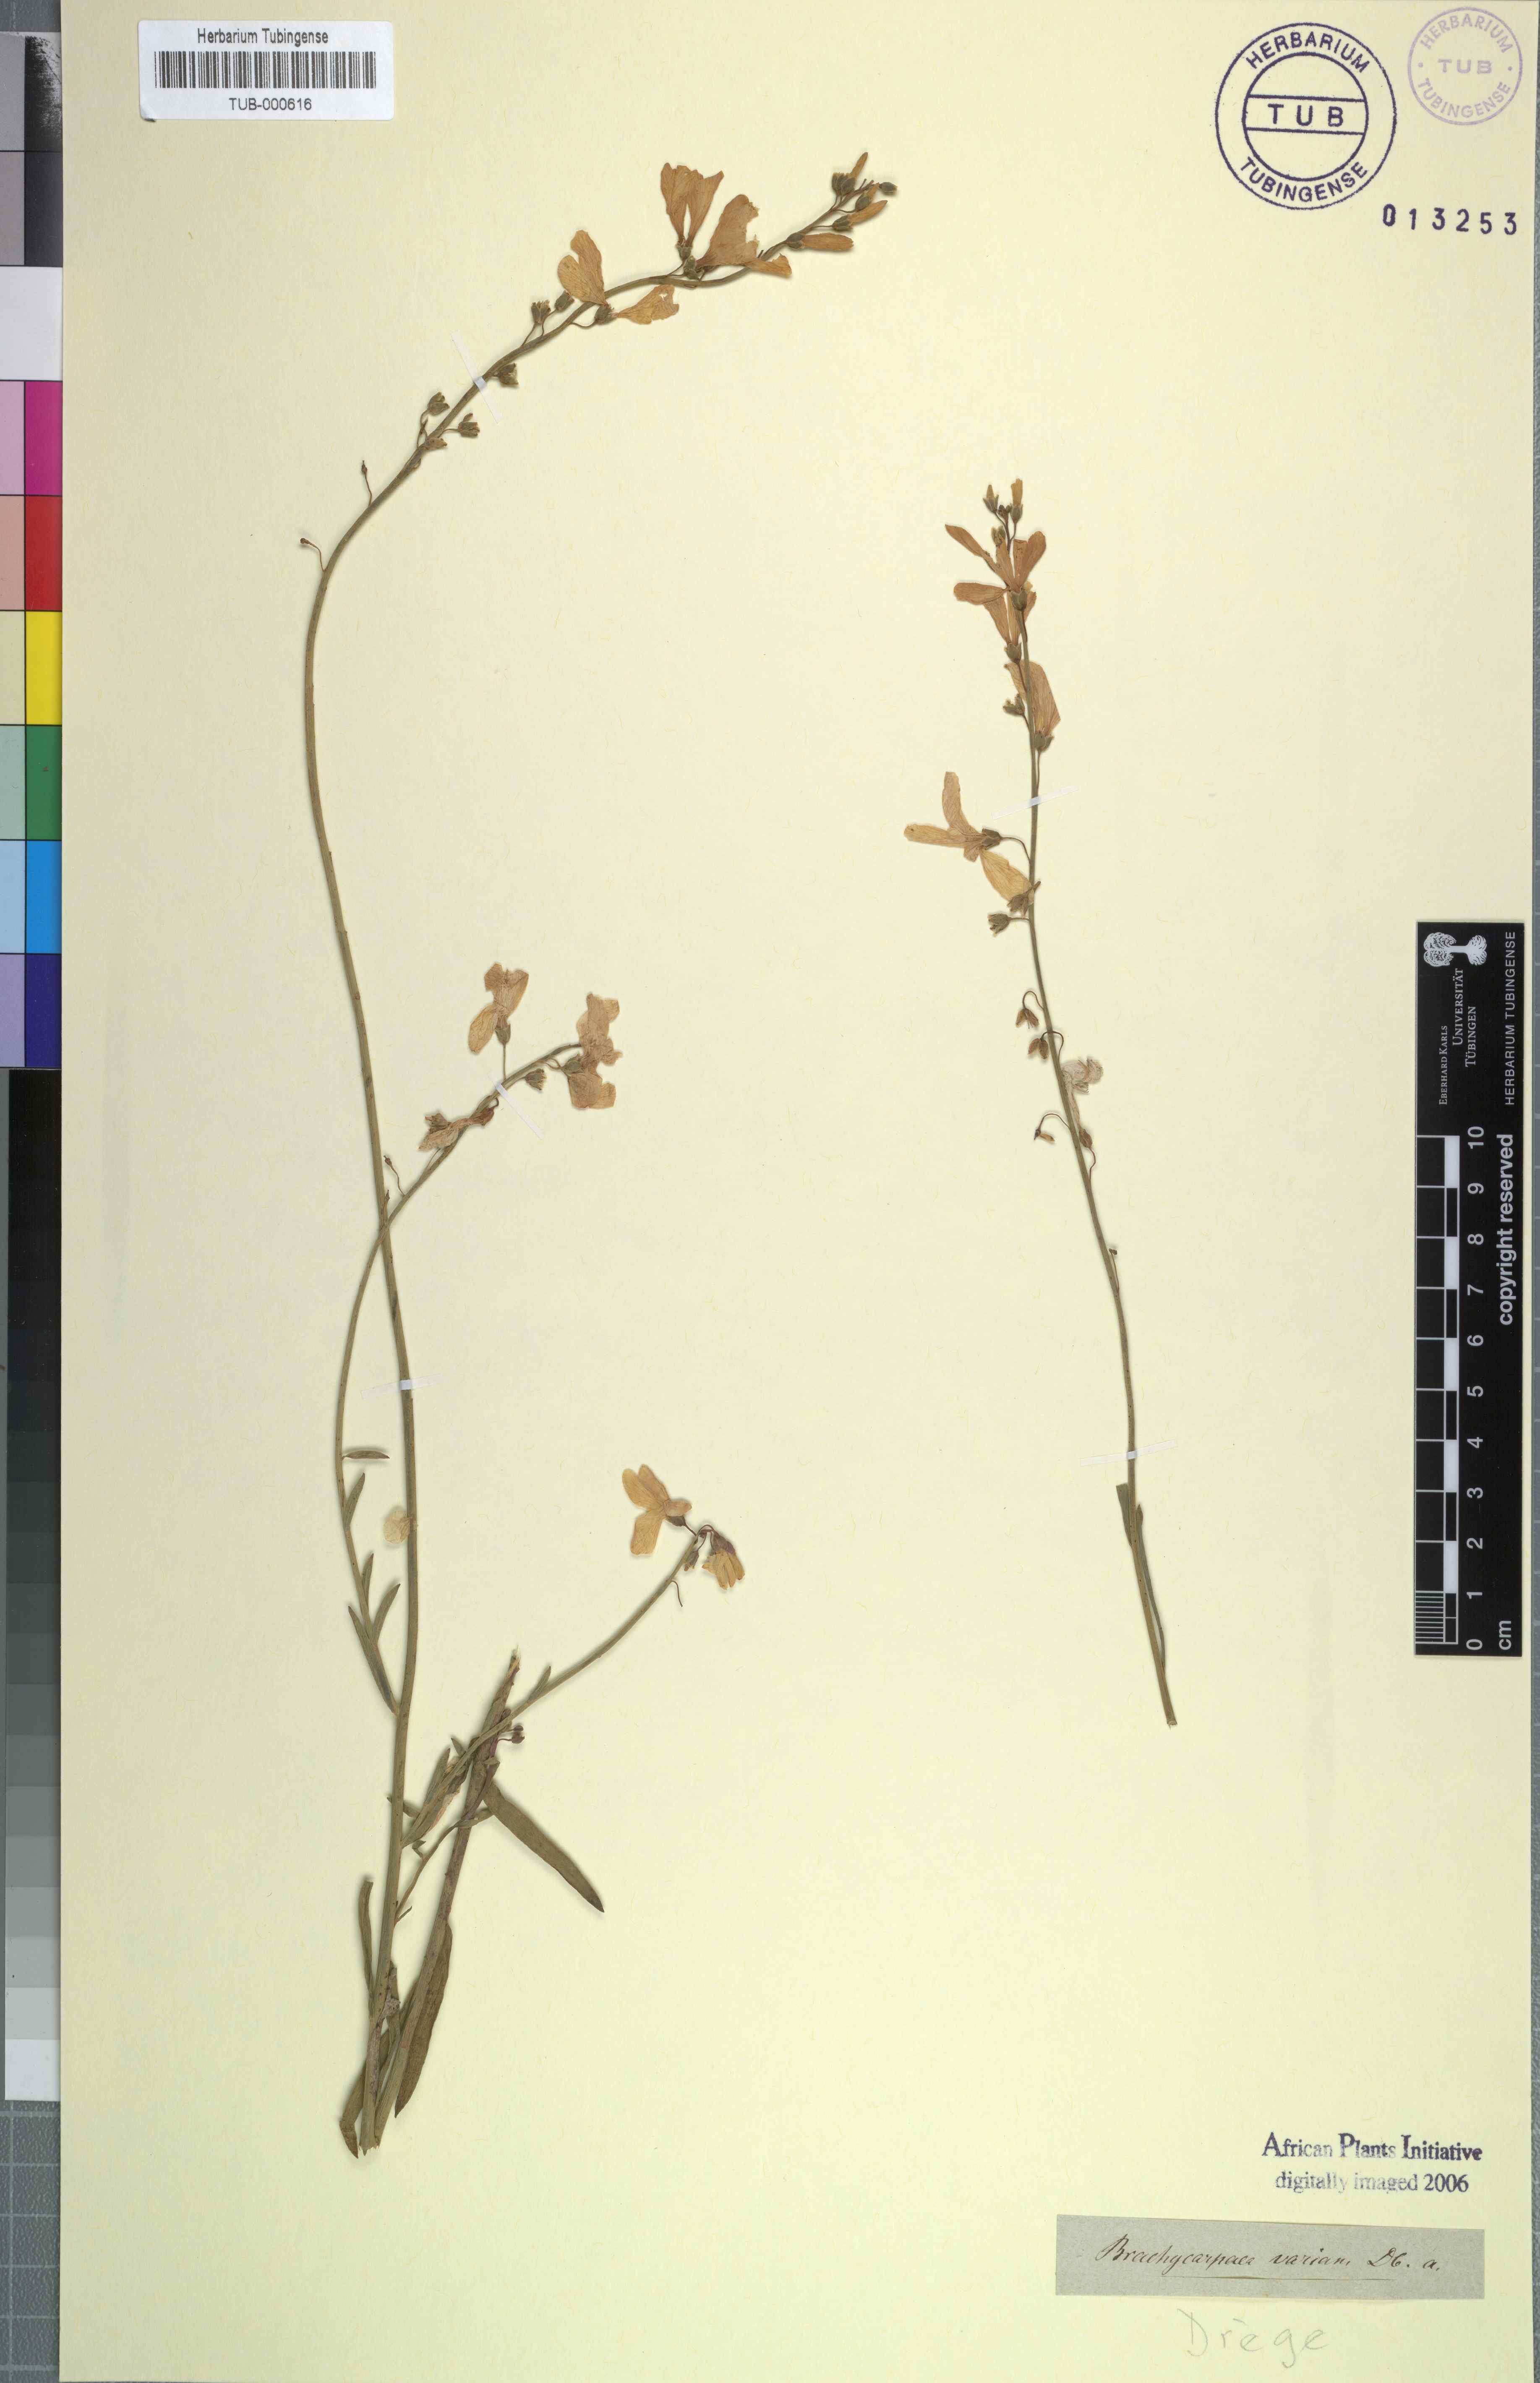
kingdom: Plantae
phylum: Tracheophyta
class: Magnoliopsida
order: Brassicales
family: Brassicaceae
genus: Heliophila
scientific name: Heliophila juncea
